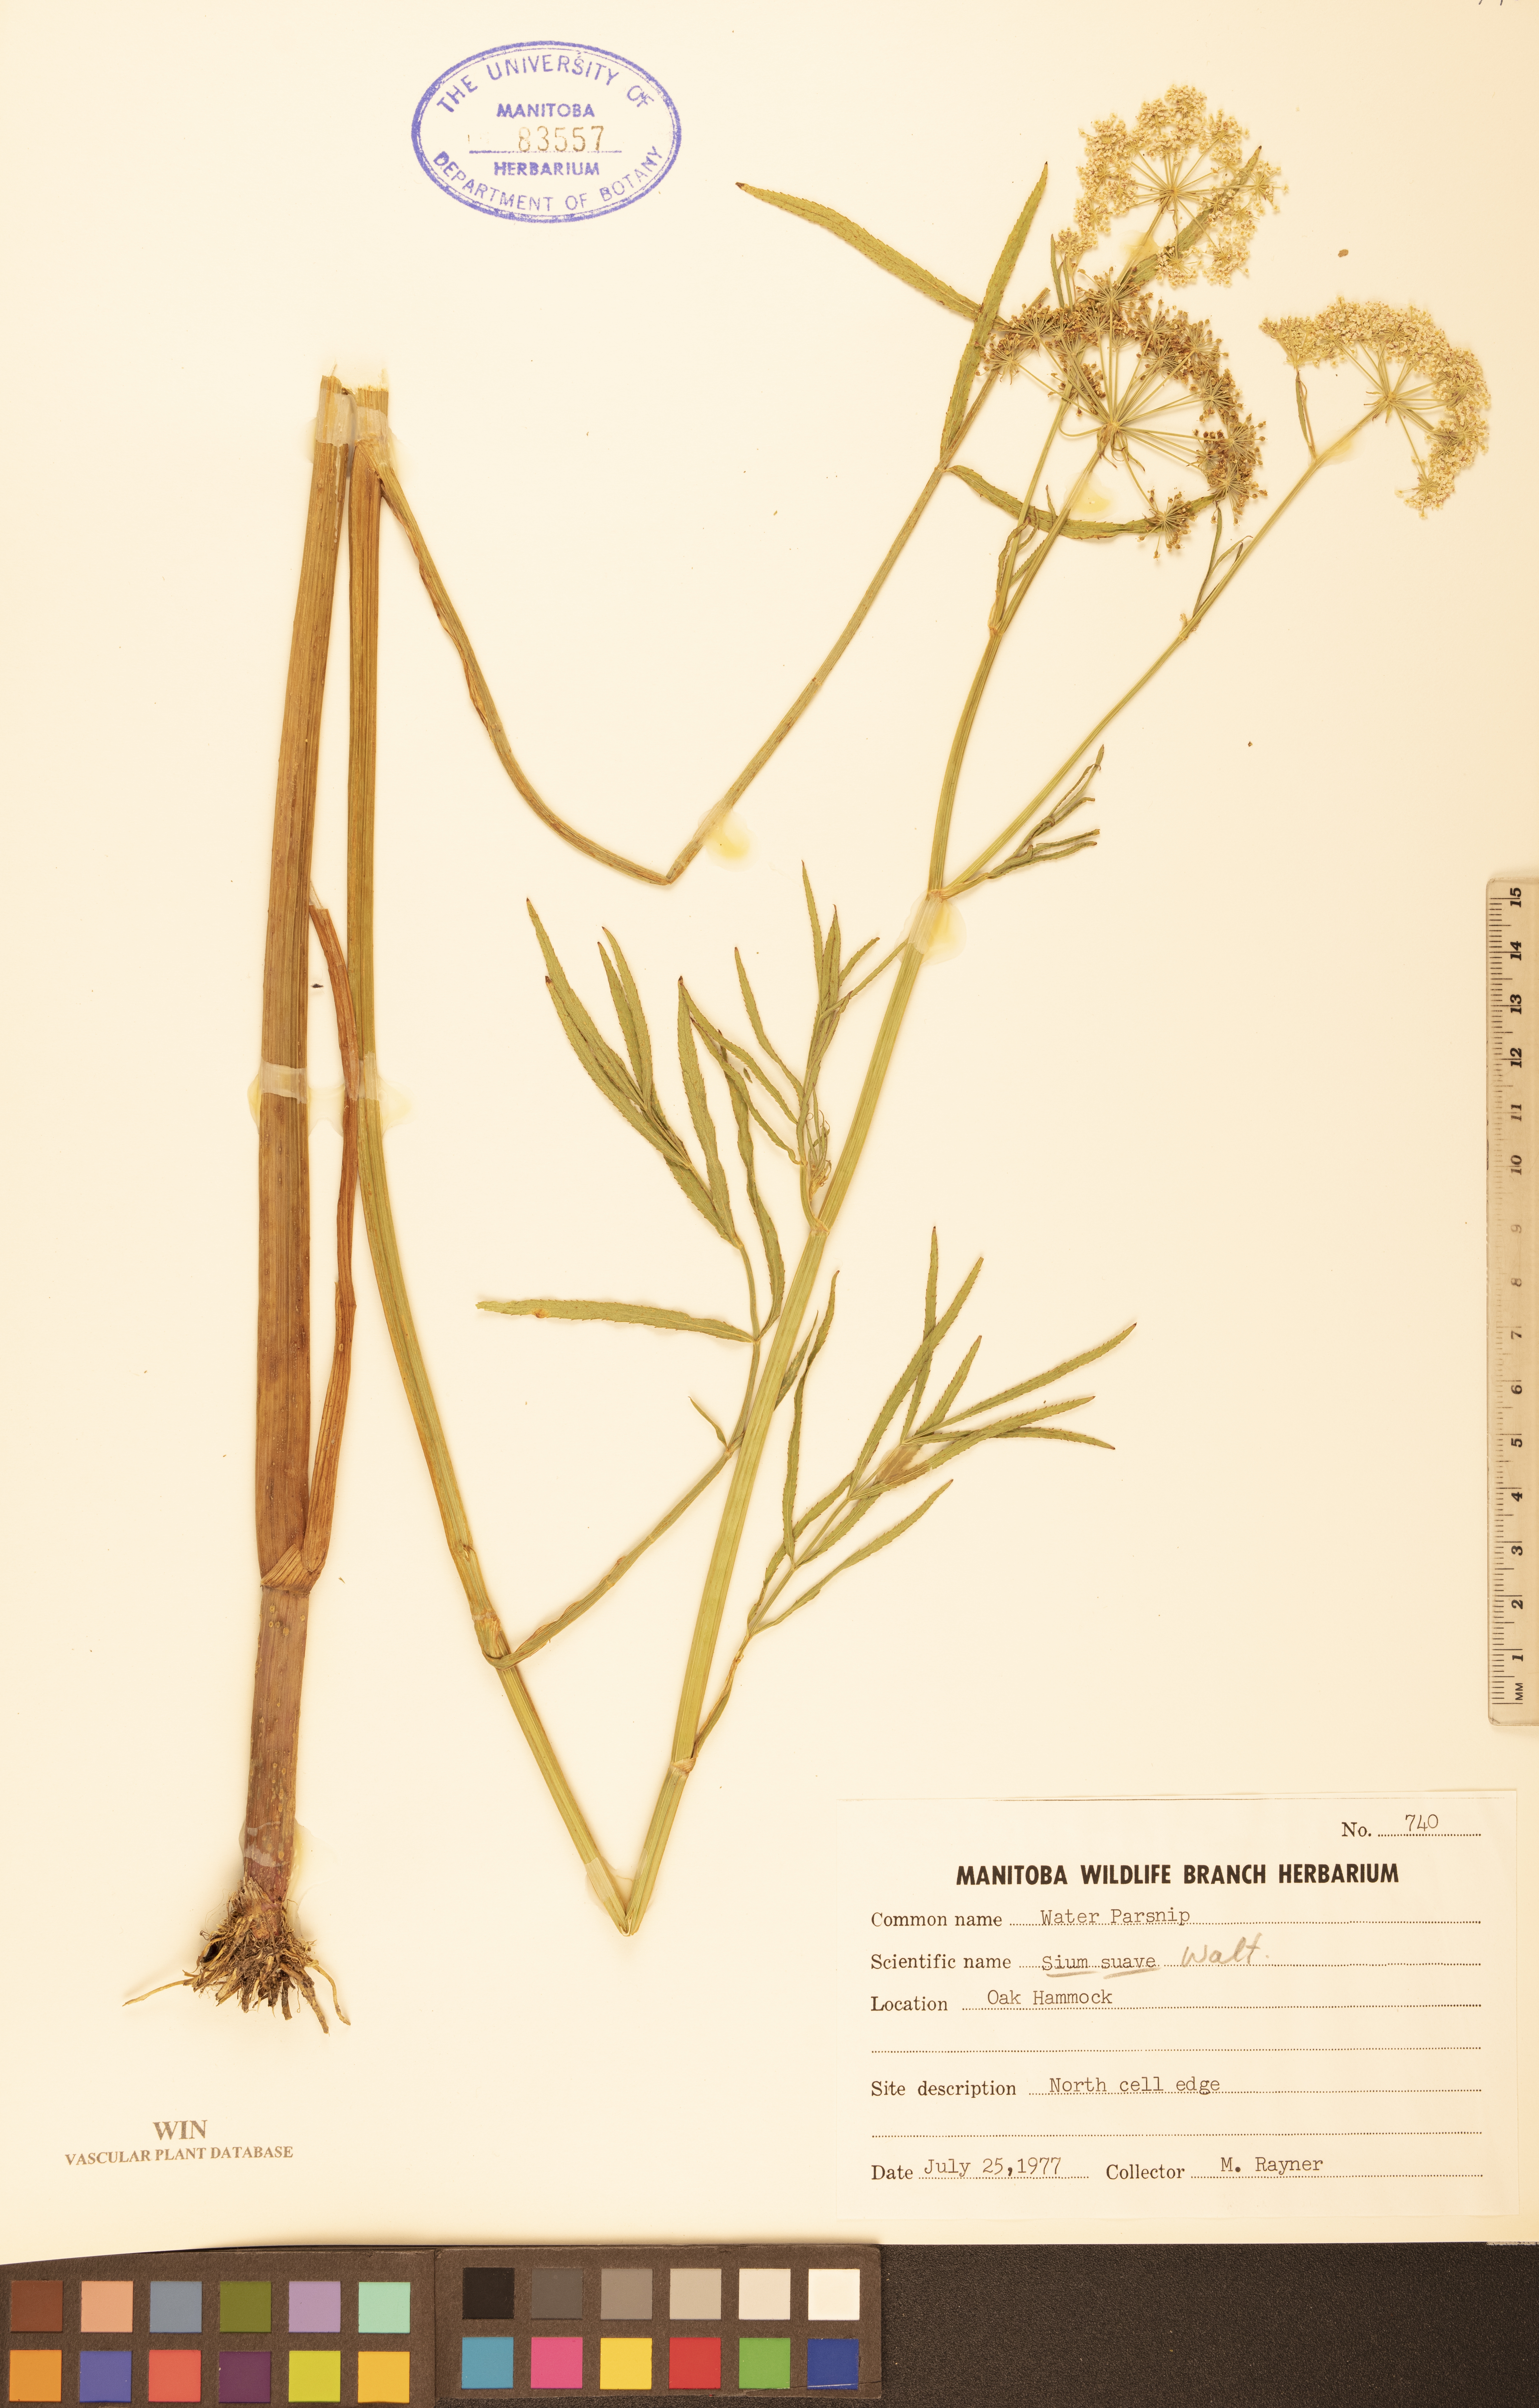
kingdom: Plantae
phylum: Tracheophyta
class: Magnoliopsida
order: Apiales
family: Apiaceae
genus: Sium
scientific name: Sium suave
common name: Hemlock water-parsnip
